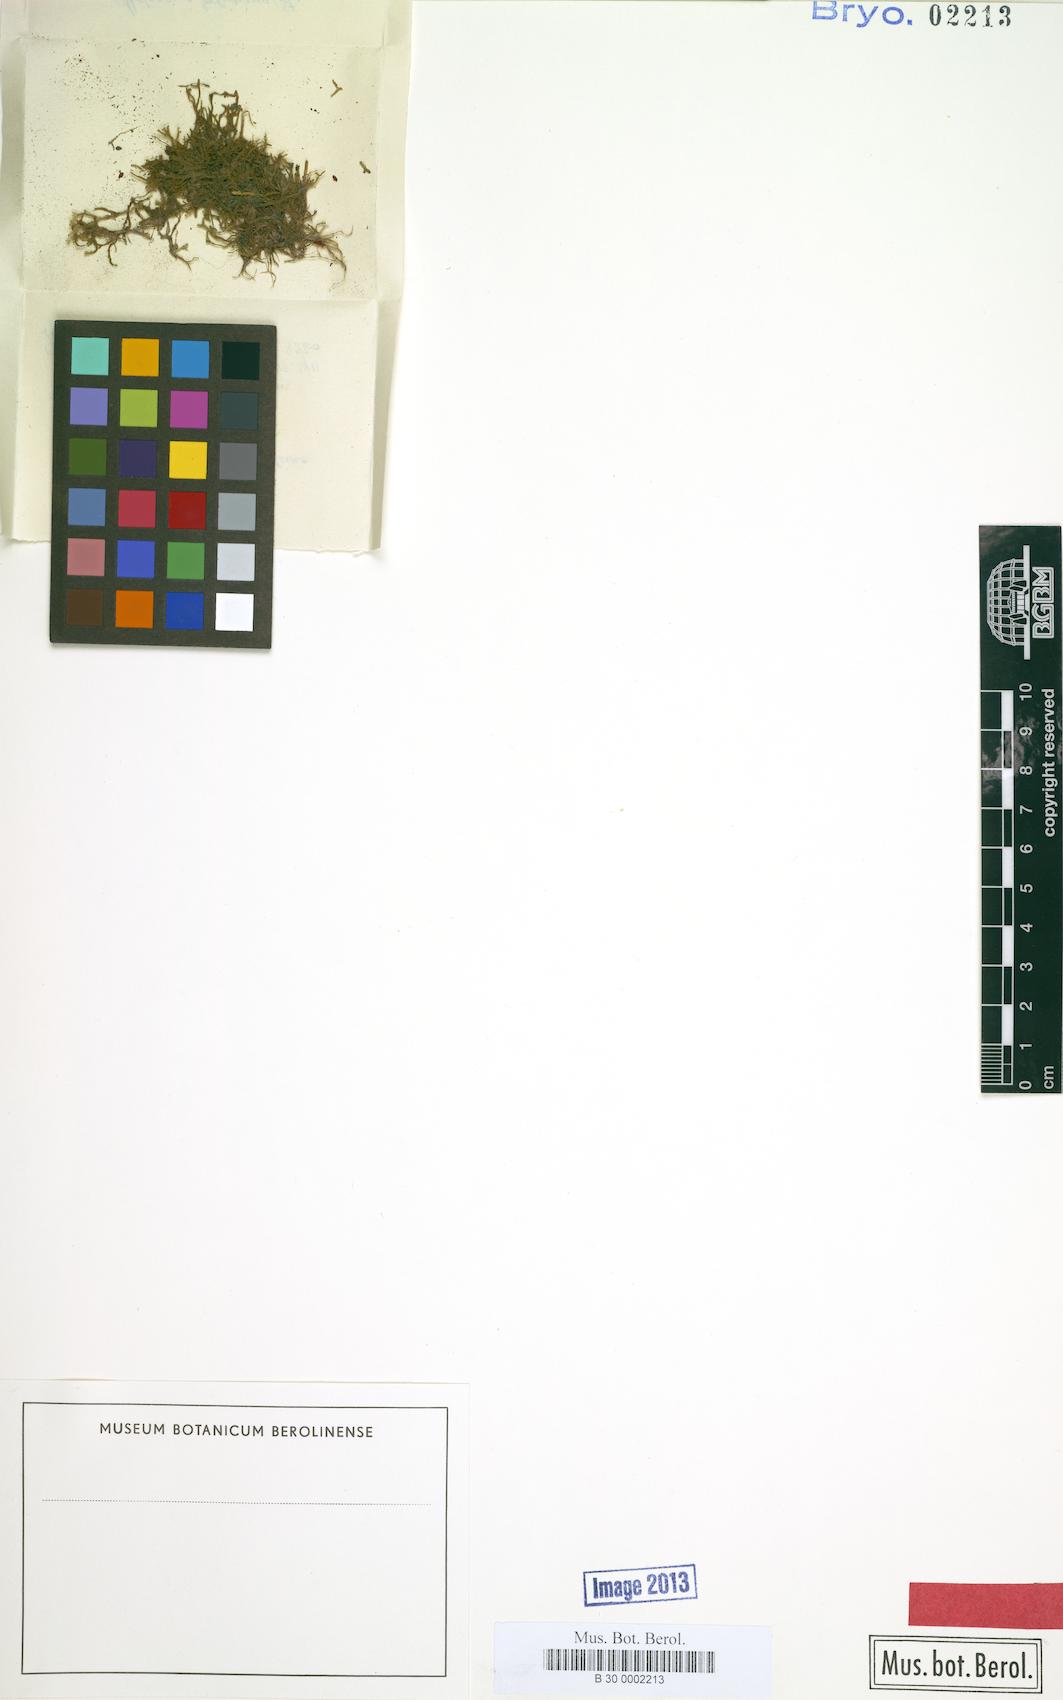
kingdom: Plantae
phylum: Marchantiophyta
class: Jungermanniopsida
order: Metzgeriales
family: Metzgeriaceae
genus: Metzgeria
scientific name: Metzgeria claviflora
